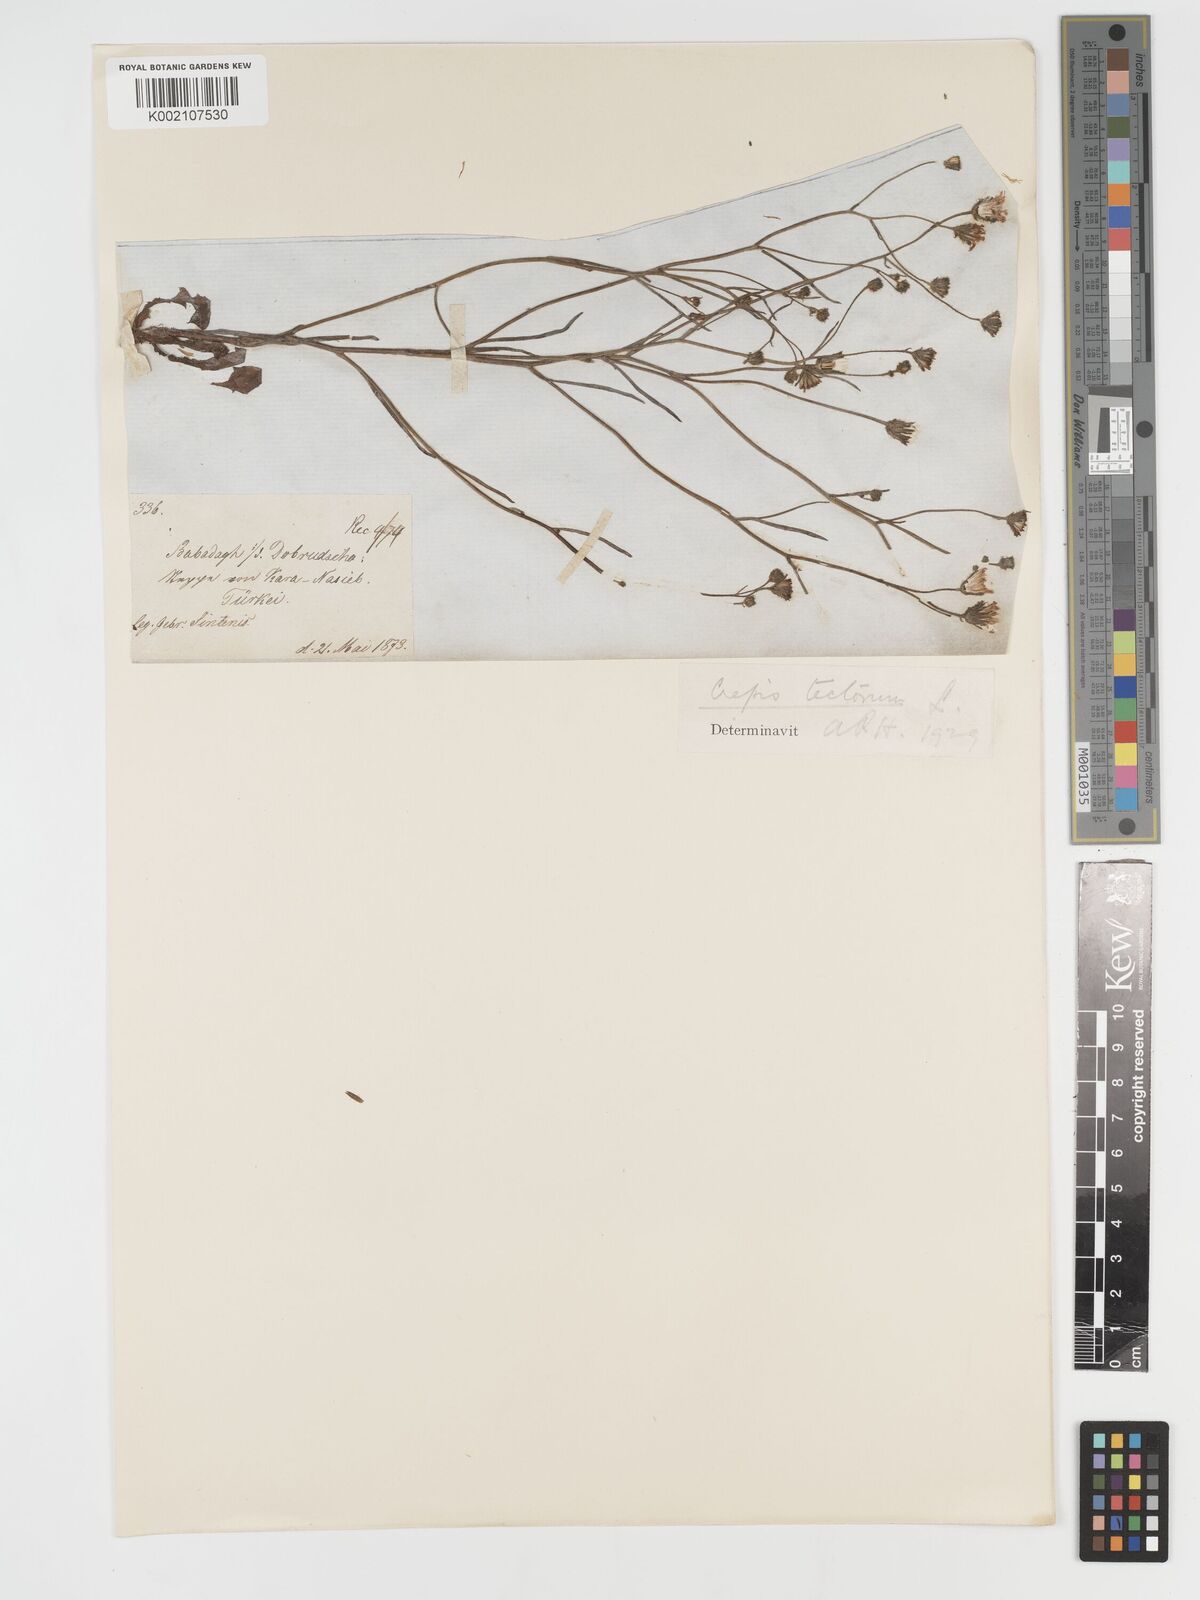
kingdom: Plantae
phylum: Tracheophyta
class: Magnoliopsida
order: Asterales
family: Asteraceae
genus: Crepis
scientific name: Crepis tectorum
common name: Narrow-leaved hawk's-beard
